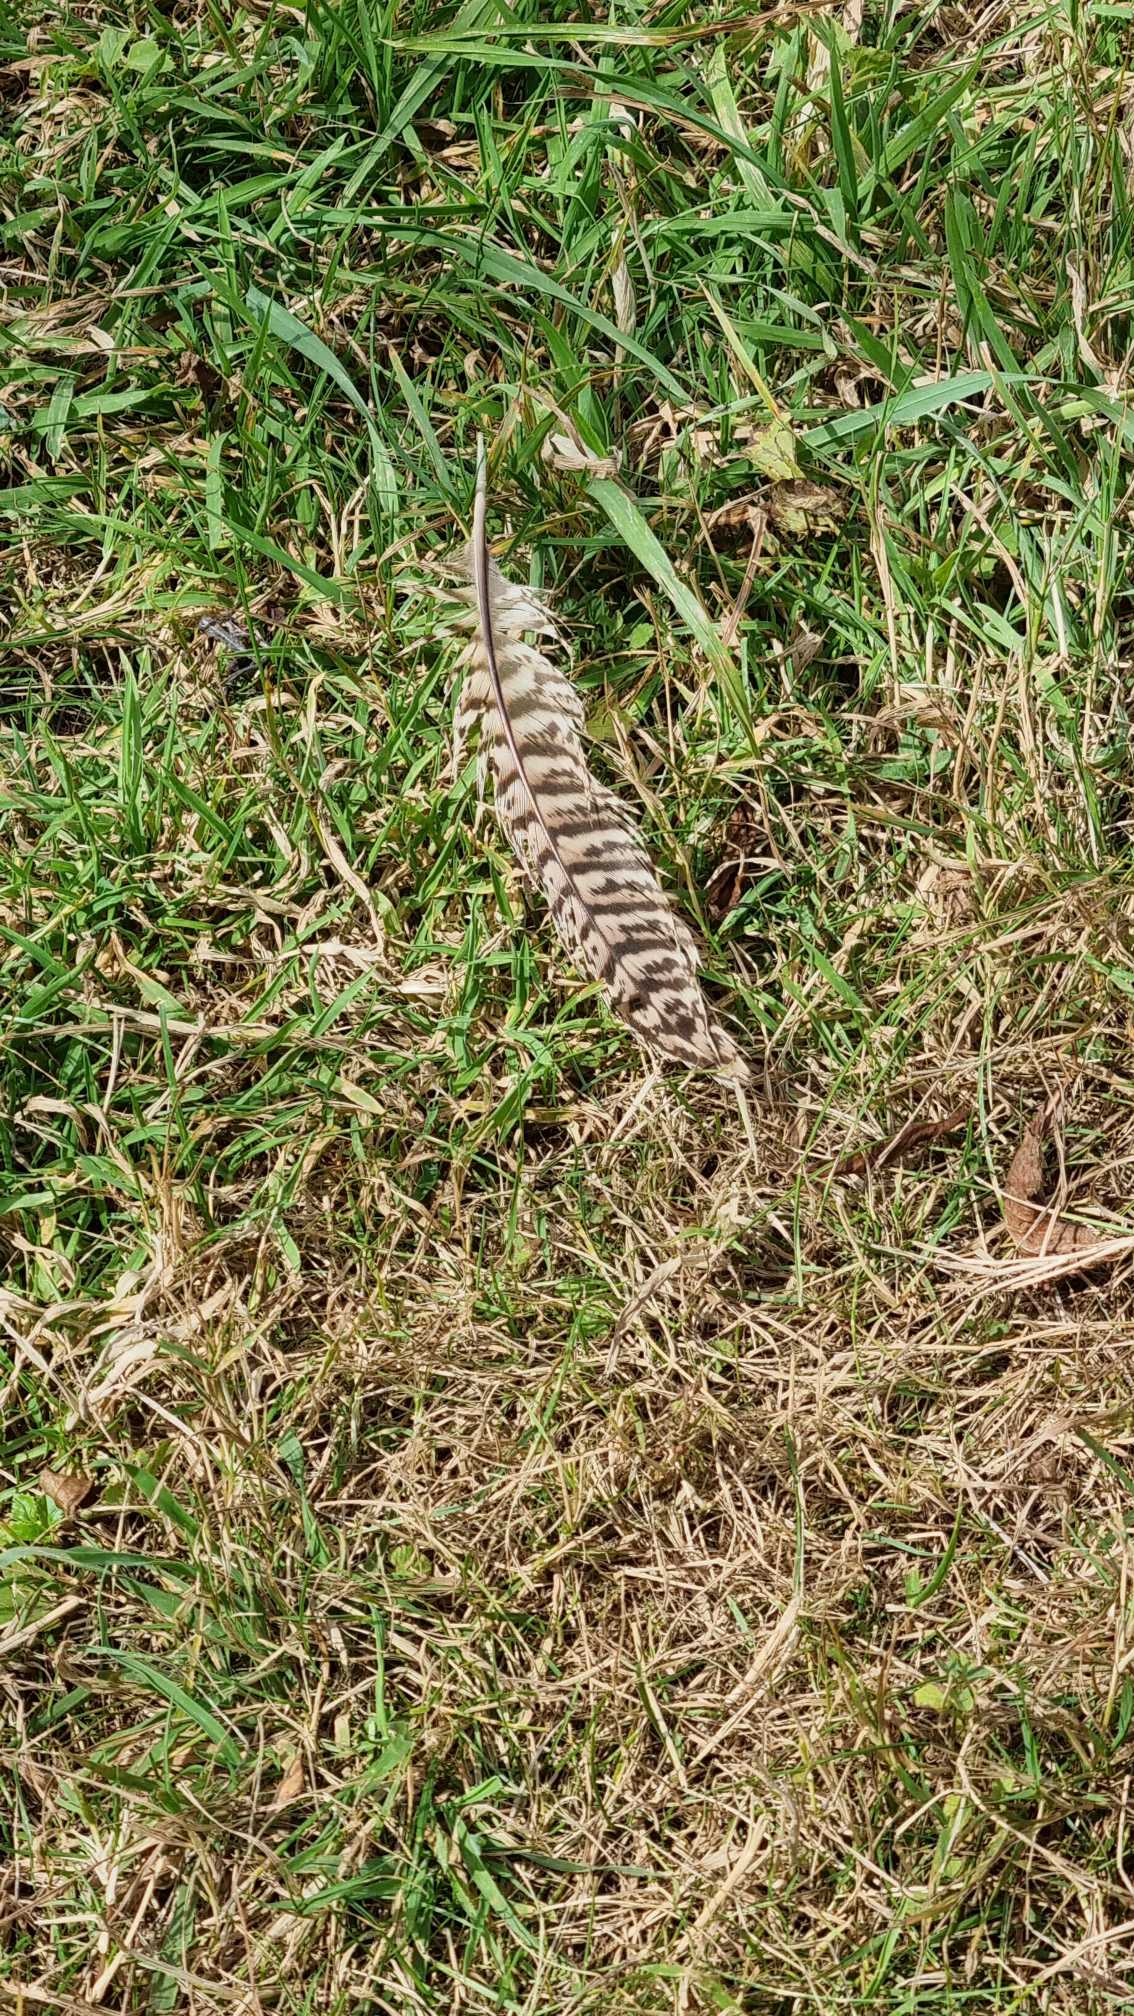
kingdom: Animalia
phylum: Chordata
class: Aves
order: Galliformes
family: Phasianidae
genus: Phasianus
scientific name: Phasianus colchicus
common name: Fasan
